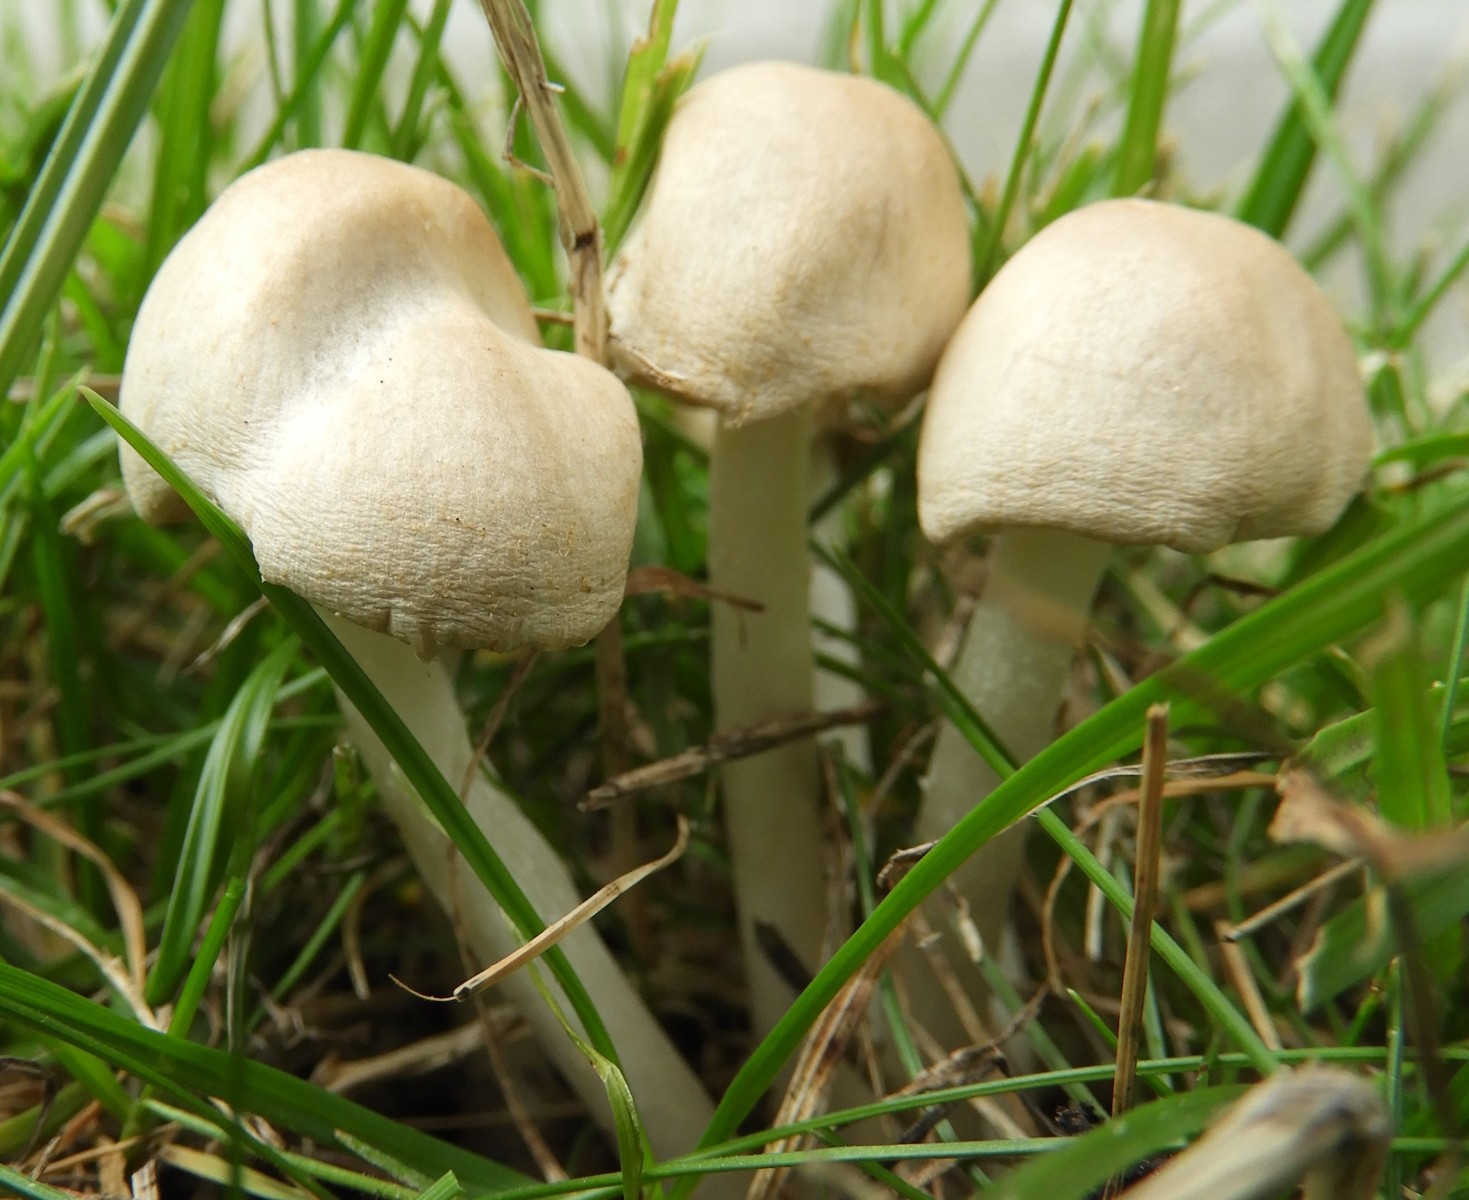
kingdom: Fungi
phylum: Basidiomycota
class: Agaricomycetes
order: Agaricales
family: Psathyrellaceae
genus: Candolleomyces
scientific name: Candolleomyces candolleanus
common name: Candolles mørkhat
